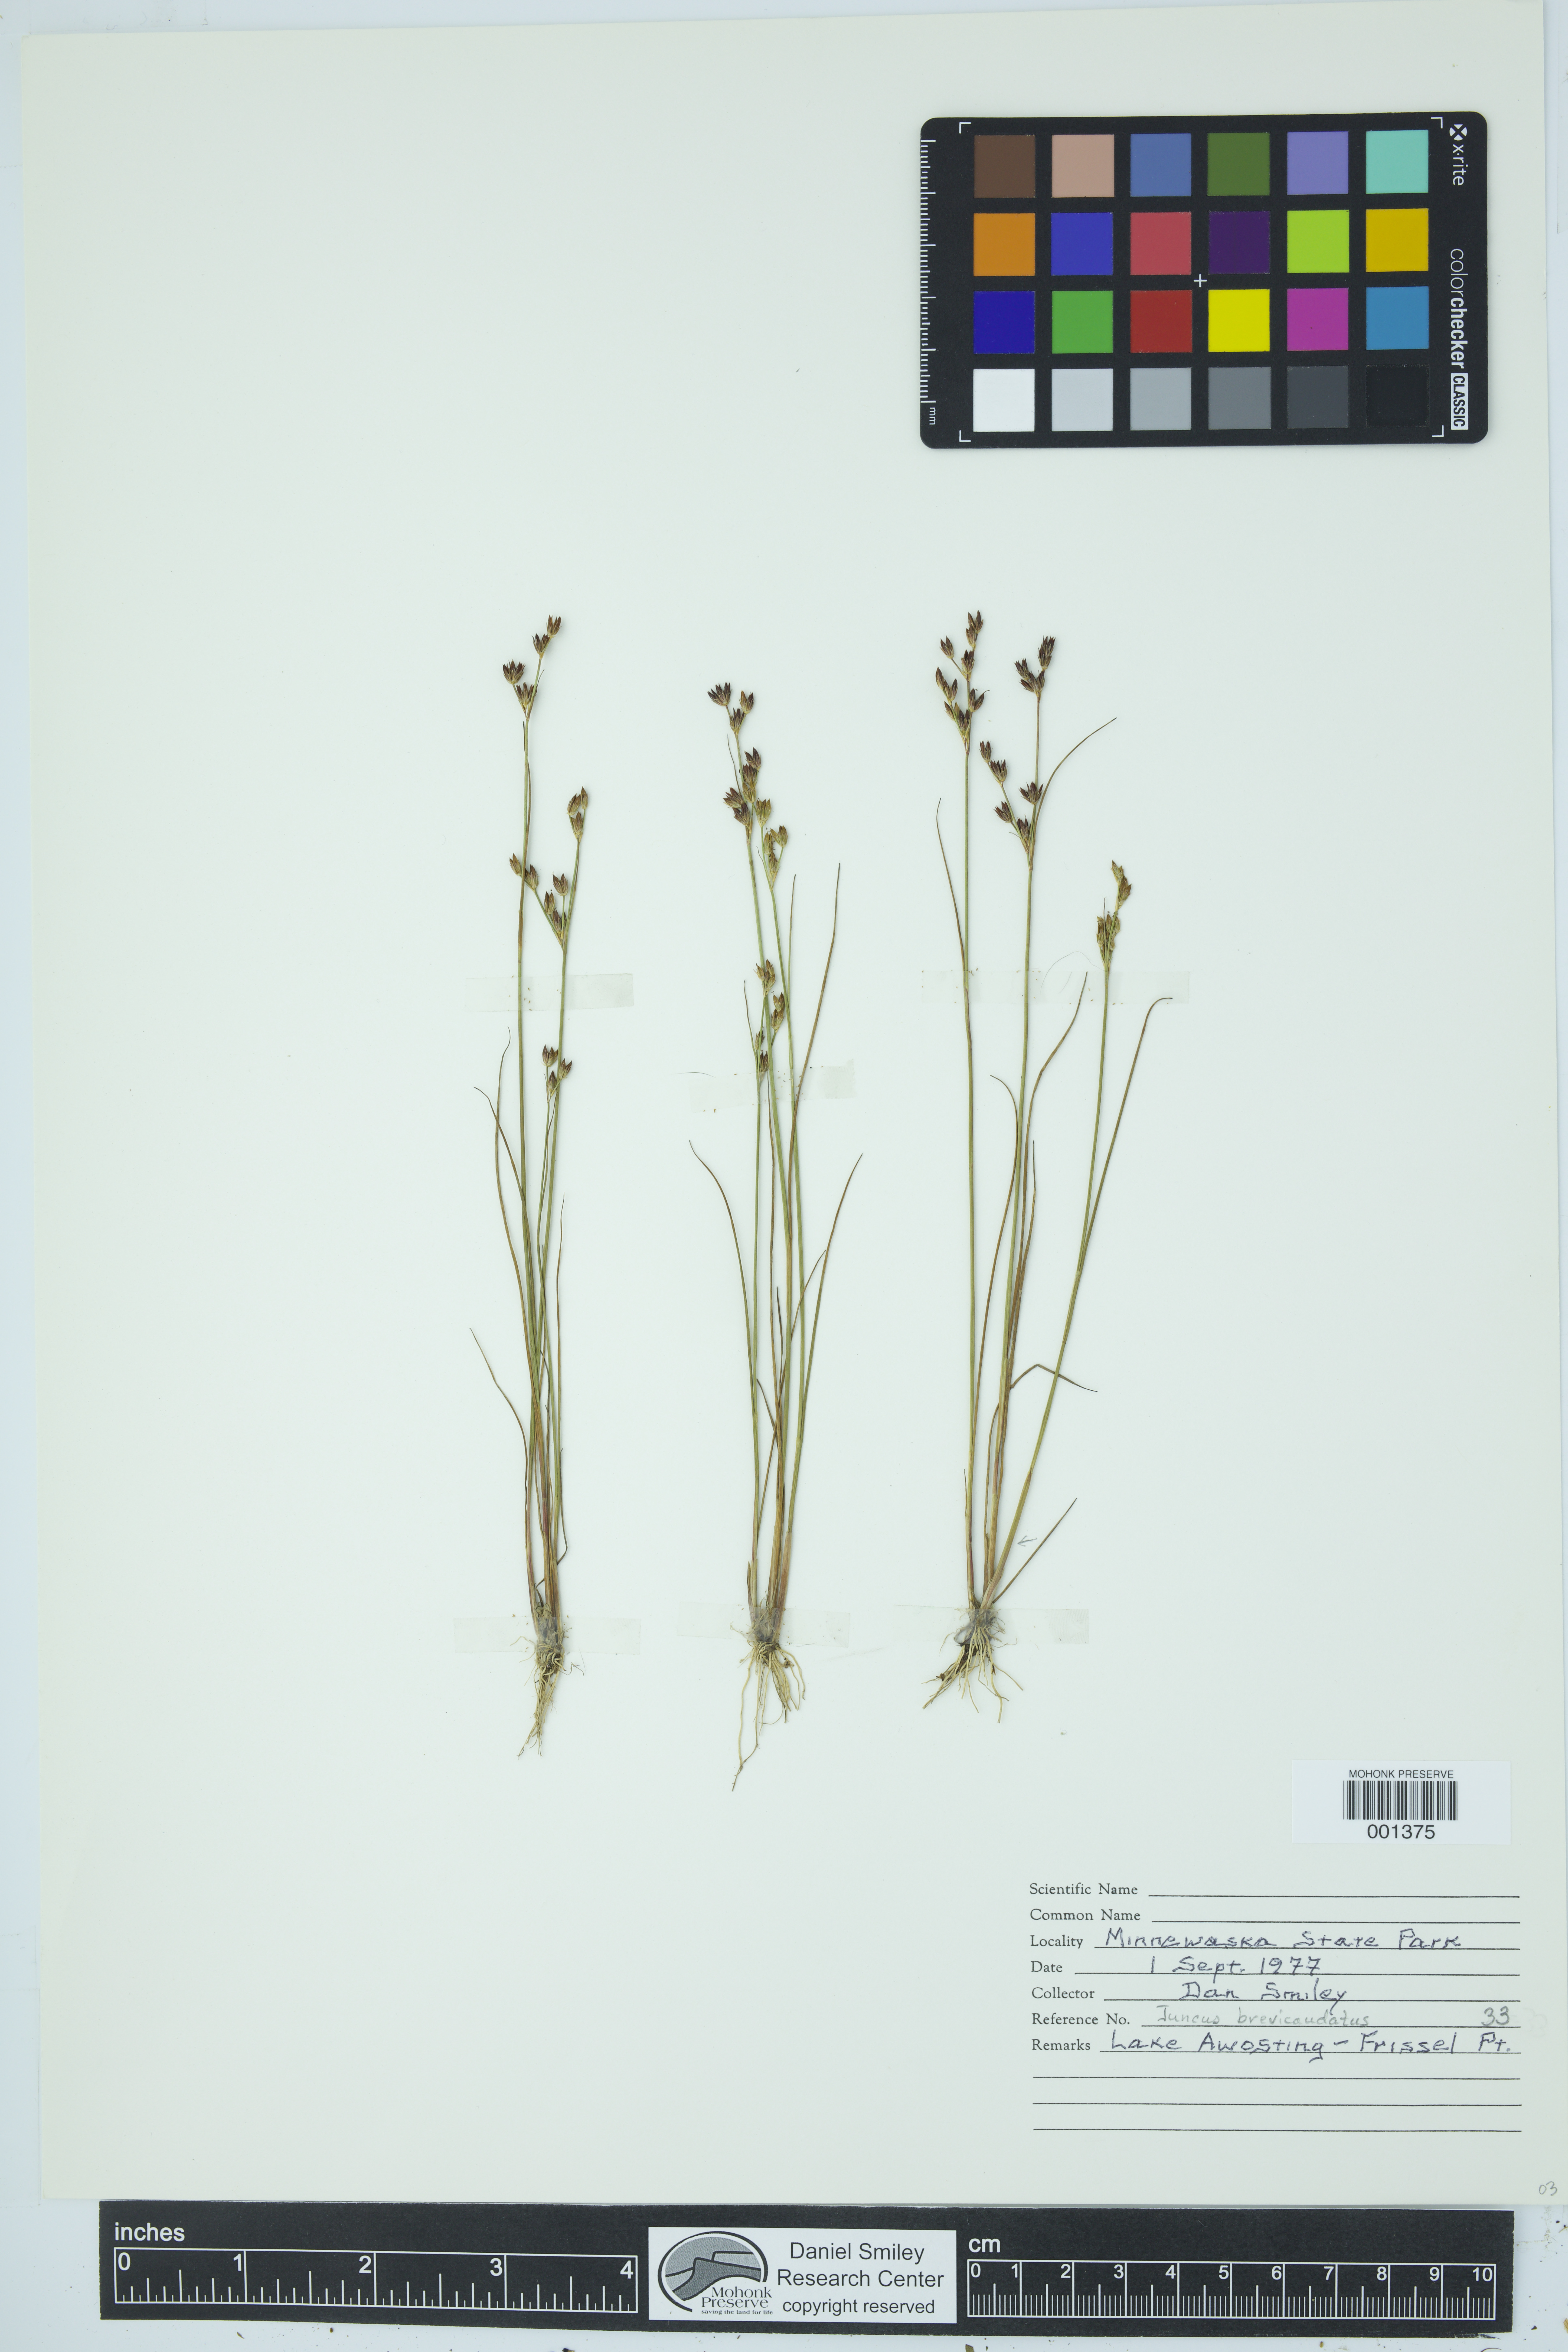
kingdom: Plantae
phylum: Tracheophyta
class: Liliopsida
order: Poales
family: Juncaceae
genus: Juncus
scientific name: Juncus brevicaudatus
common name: Narrow-panicle rush
